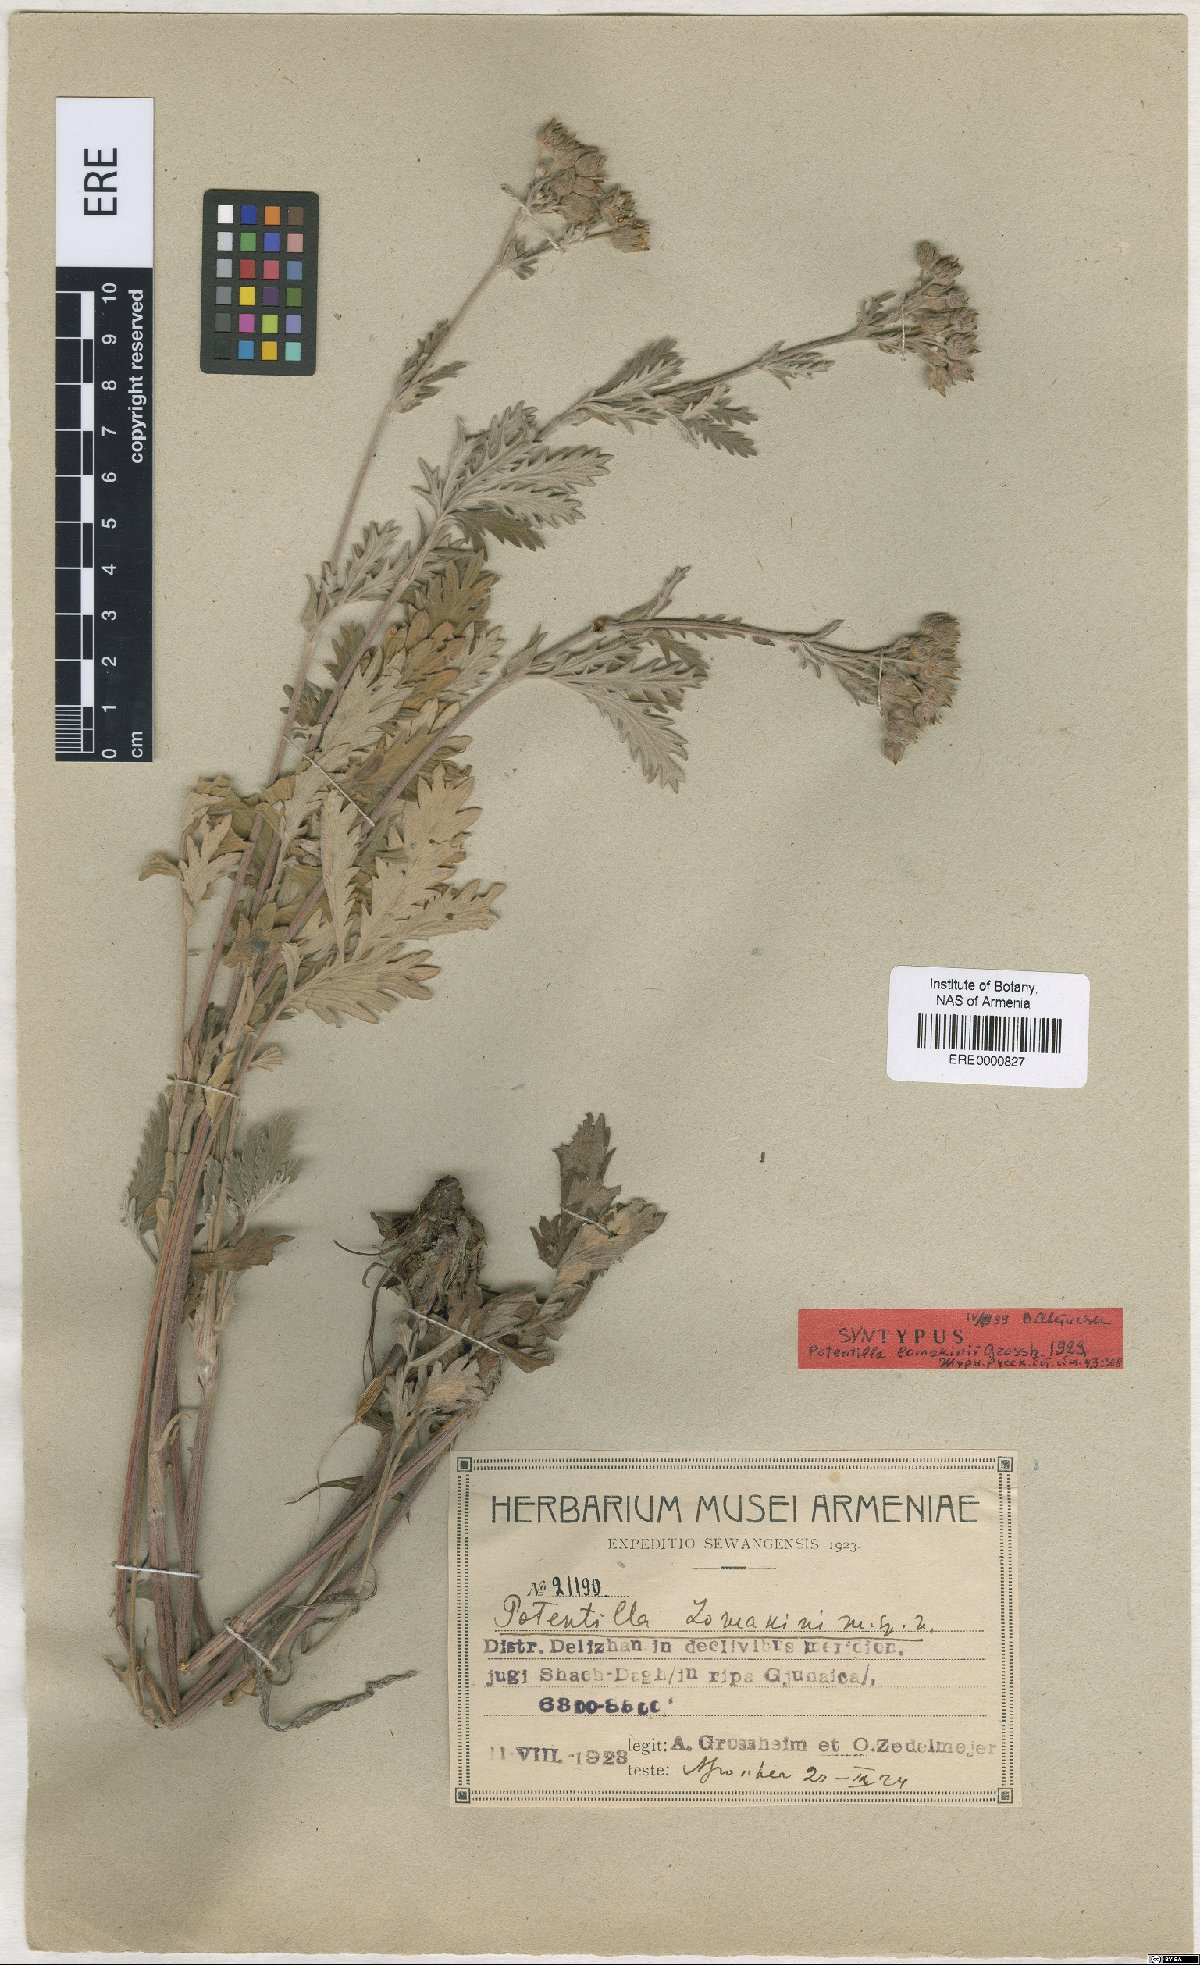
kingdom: Plantae
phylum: Tracheophyta
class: Magnoliopsida
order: Rosales
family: Rosaceae
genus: Potentilla
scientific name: Potentilla lomakinii
